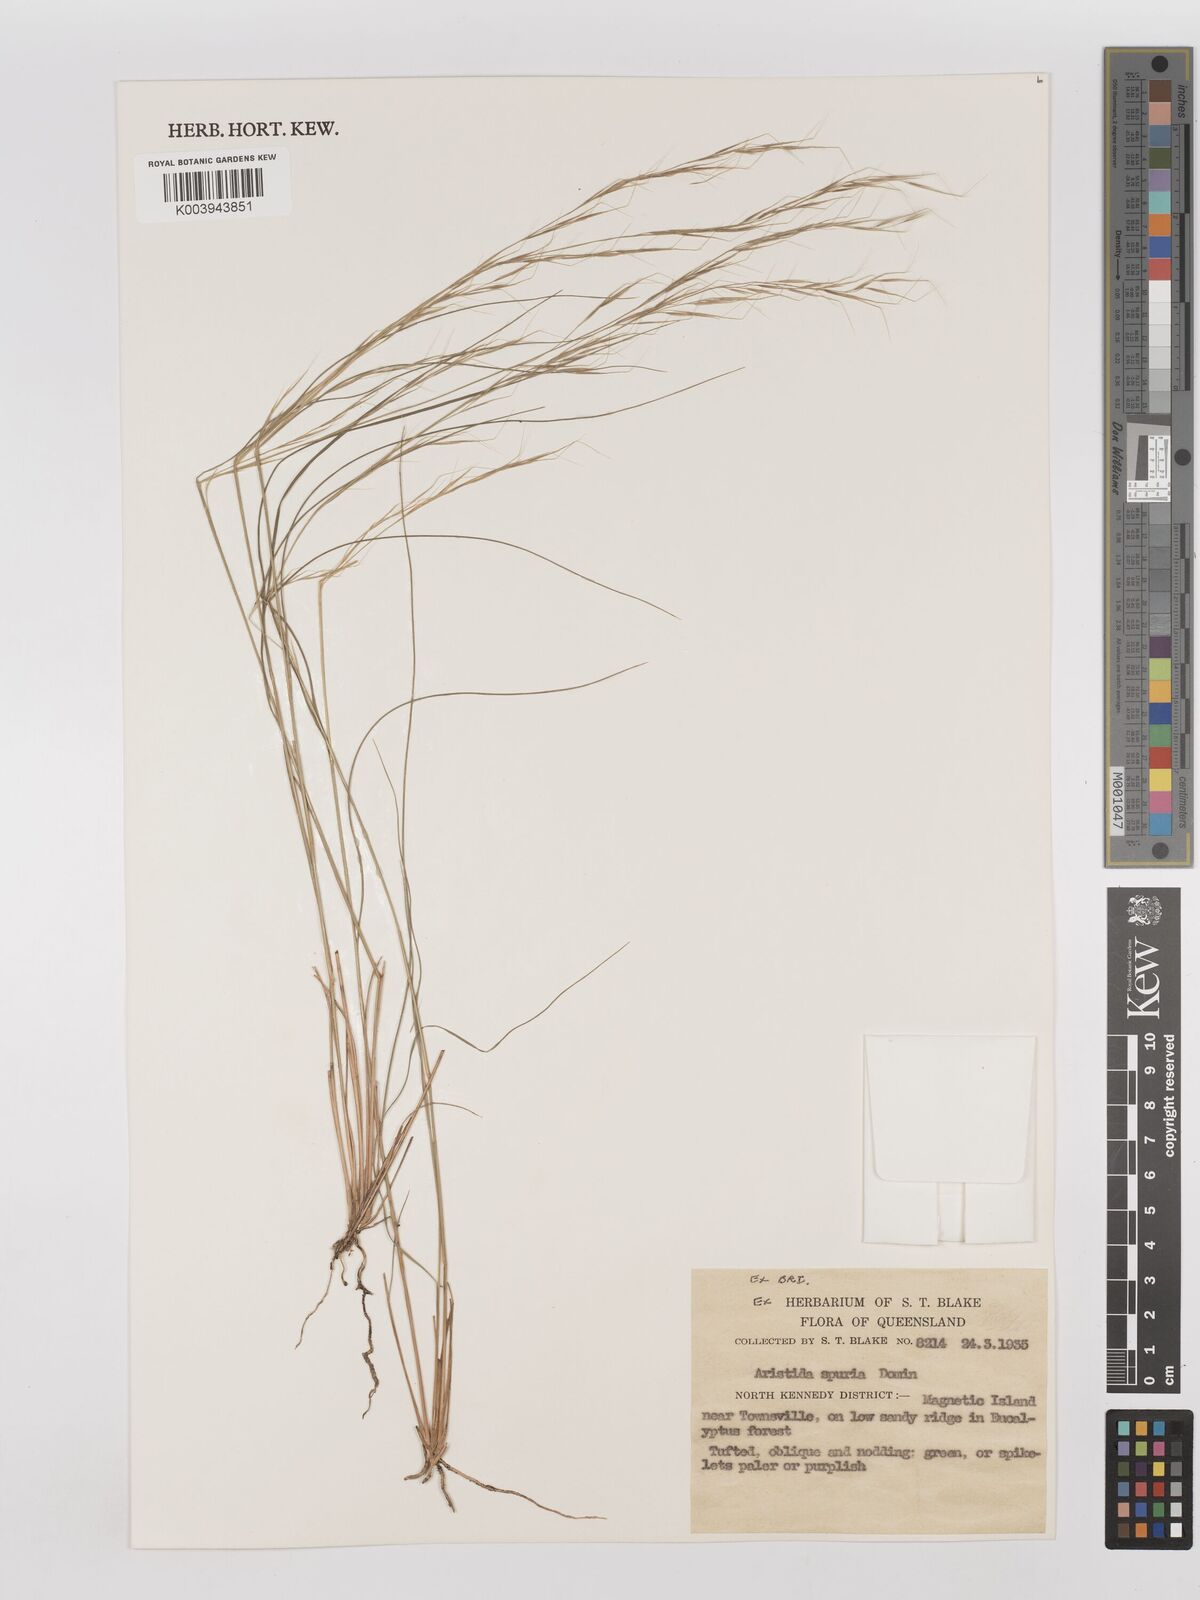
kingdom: Plantae
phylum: Tracheophyta
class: Liliopsida
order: Poales
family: Poaceae
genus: Aristida
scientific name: Aristida spuria
